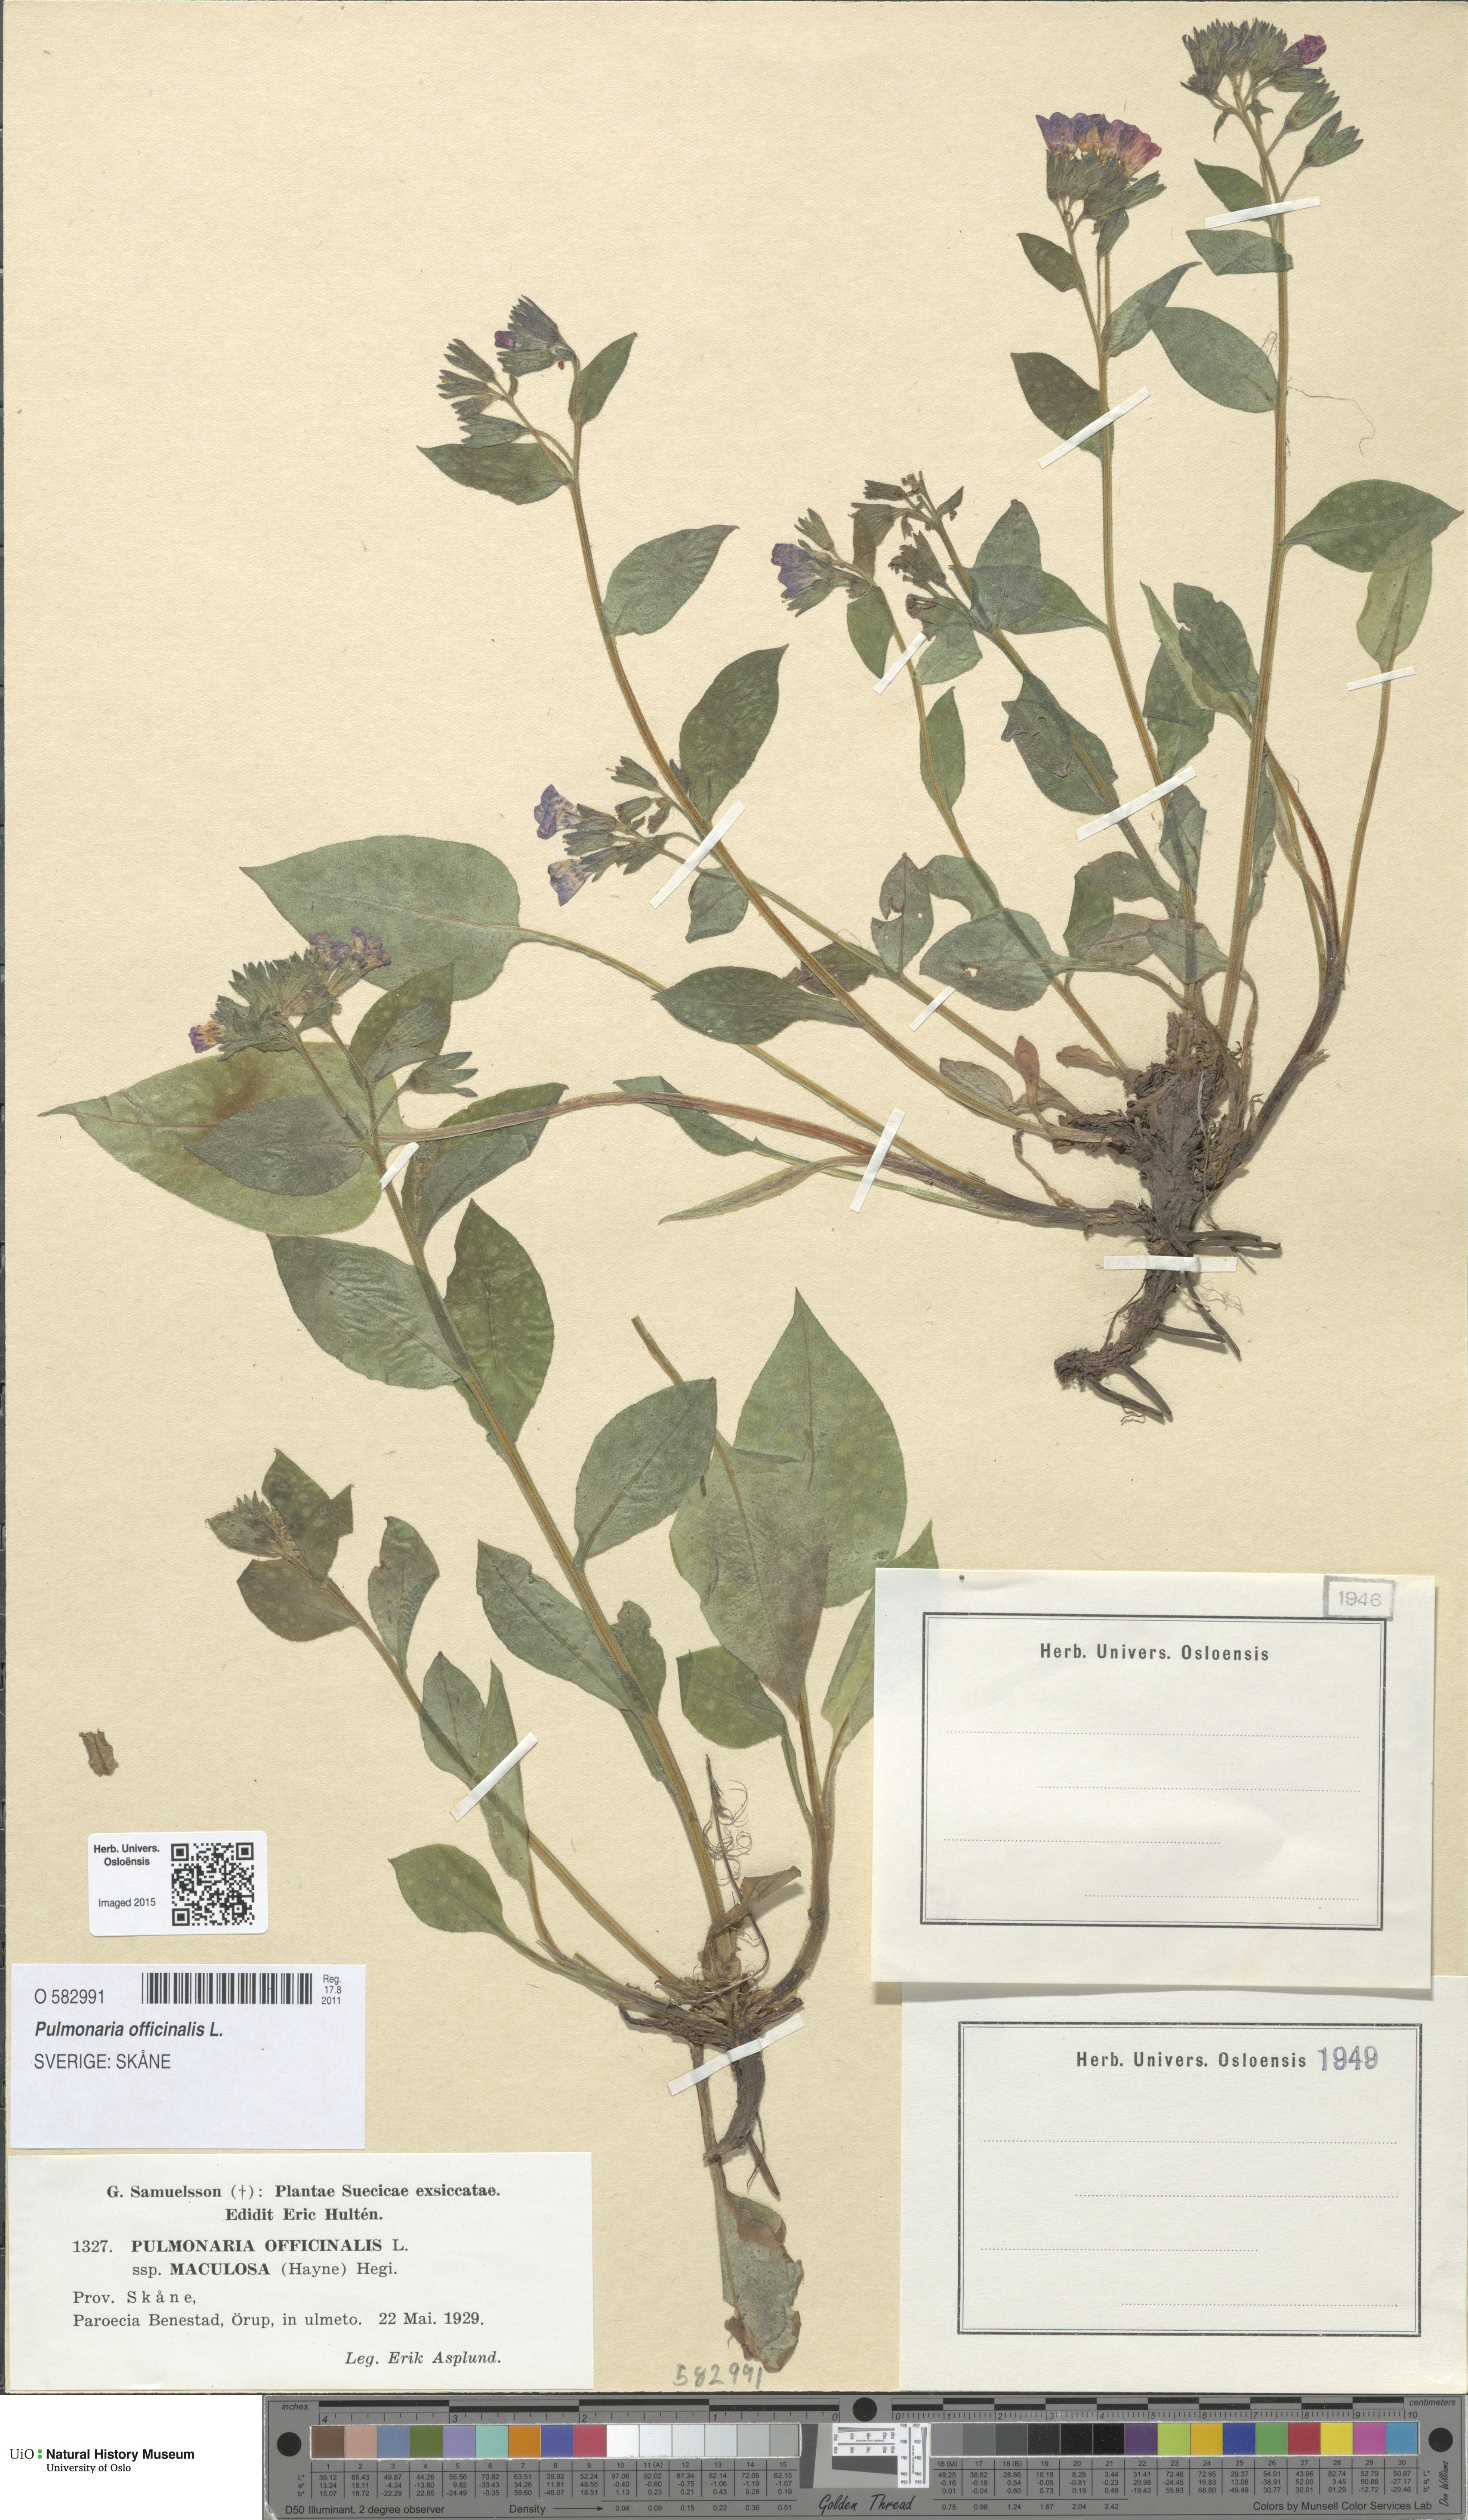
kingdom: Plantae
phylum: Tracheophyta
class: Magnoliopsida
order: Boraginales
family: Boraginaceae
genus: Pulmonaria
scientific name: Pulmonaria officinalis
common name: Lungwort
